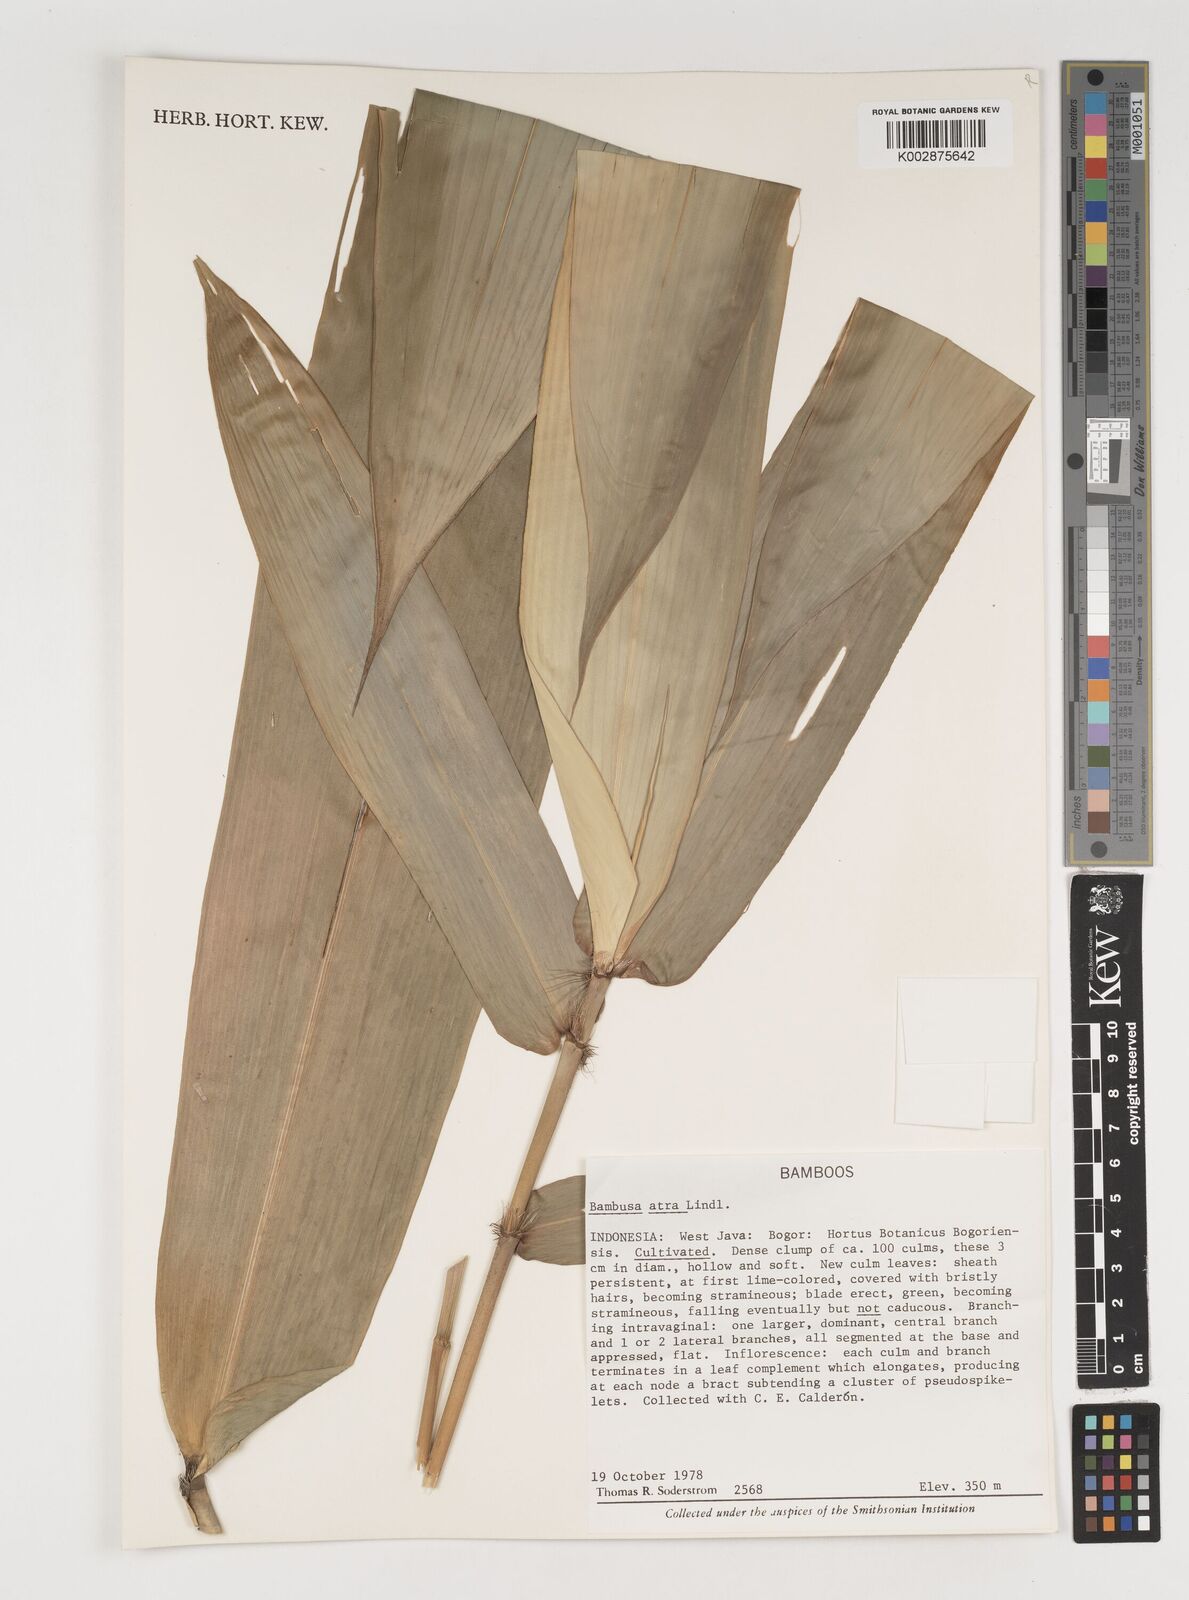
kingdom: Plantae
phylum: Tracheophyta
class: Liliopsida
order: Poales
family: Poaceae
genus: Neololeba
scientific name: Neololeba atra
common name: Cape bamboo
